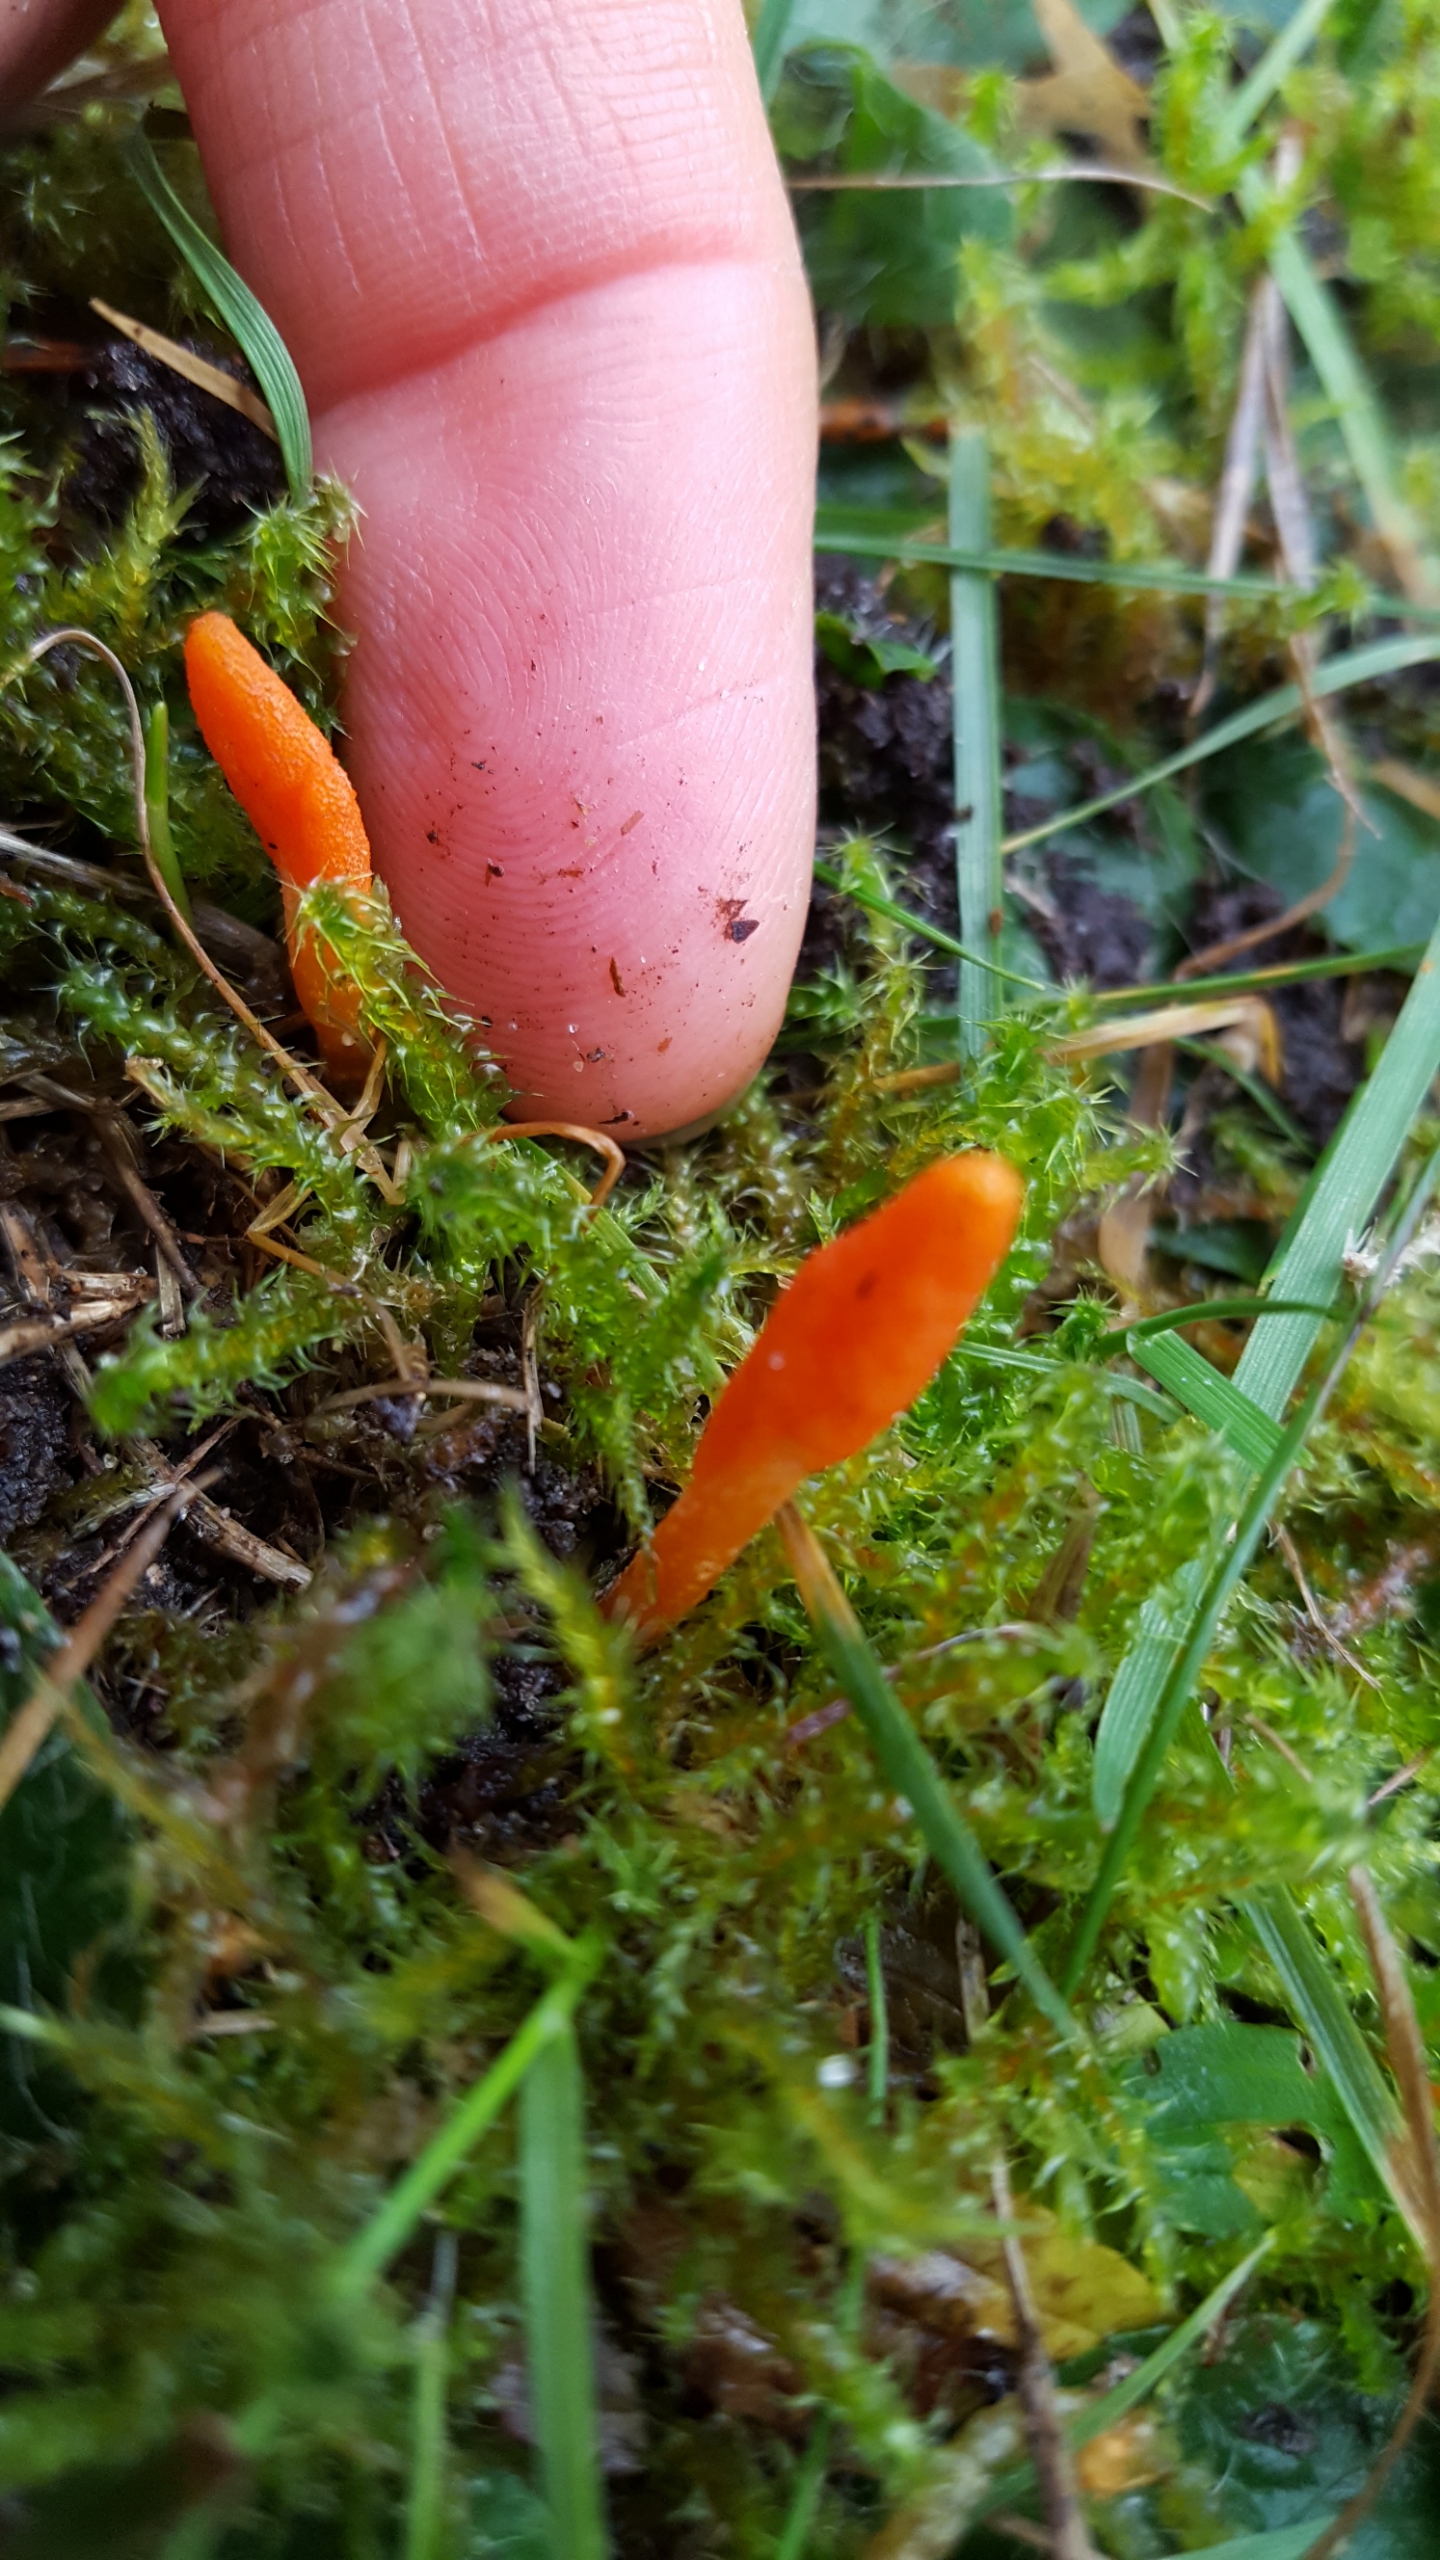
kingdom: Fungi
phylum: Ascomycota
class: Sordariomycetes
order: Hypocreales
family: Cordycipitaceae
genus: Cordyceps
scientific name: Cordyceps militaris
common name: Puppe-snyltekølle
